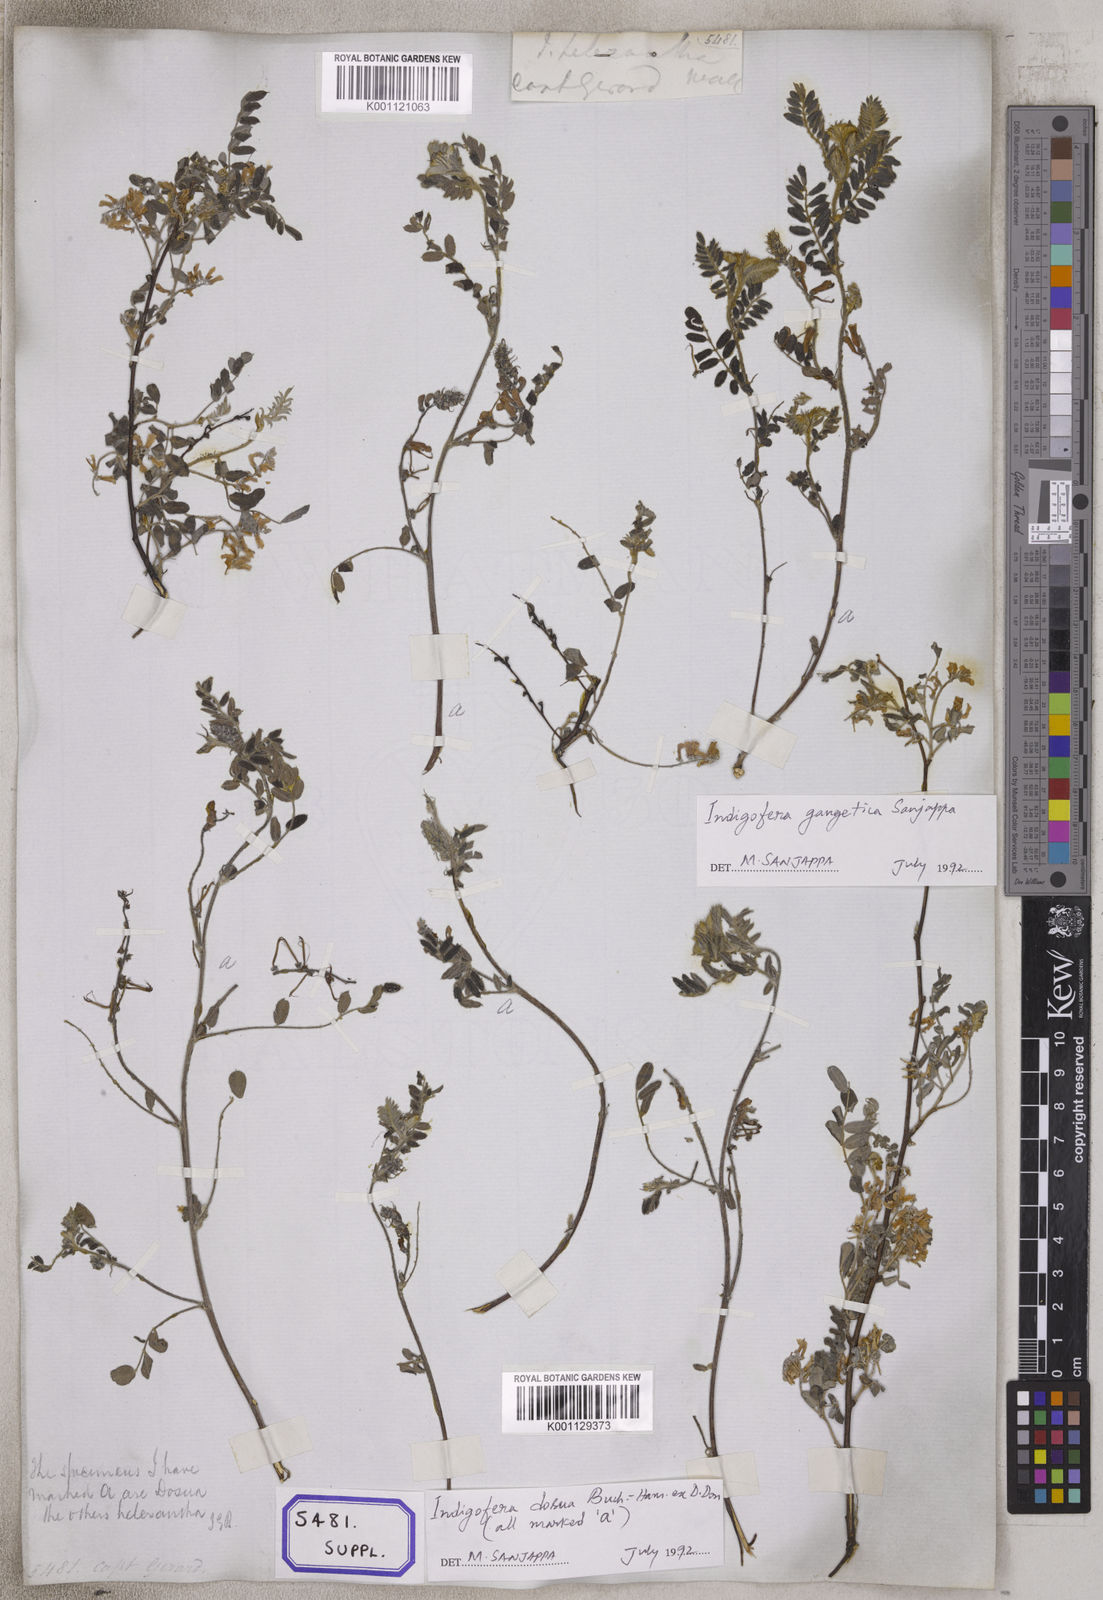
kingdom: Plantae
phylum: Tracheophyta
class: Magnoliopsida
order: Fabales
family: Fabaceae
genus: Indigofera
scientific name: Indigofera
